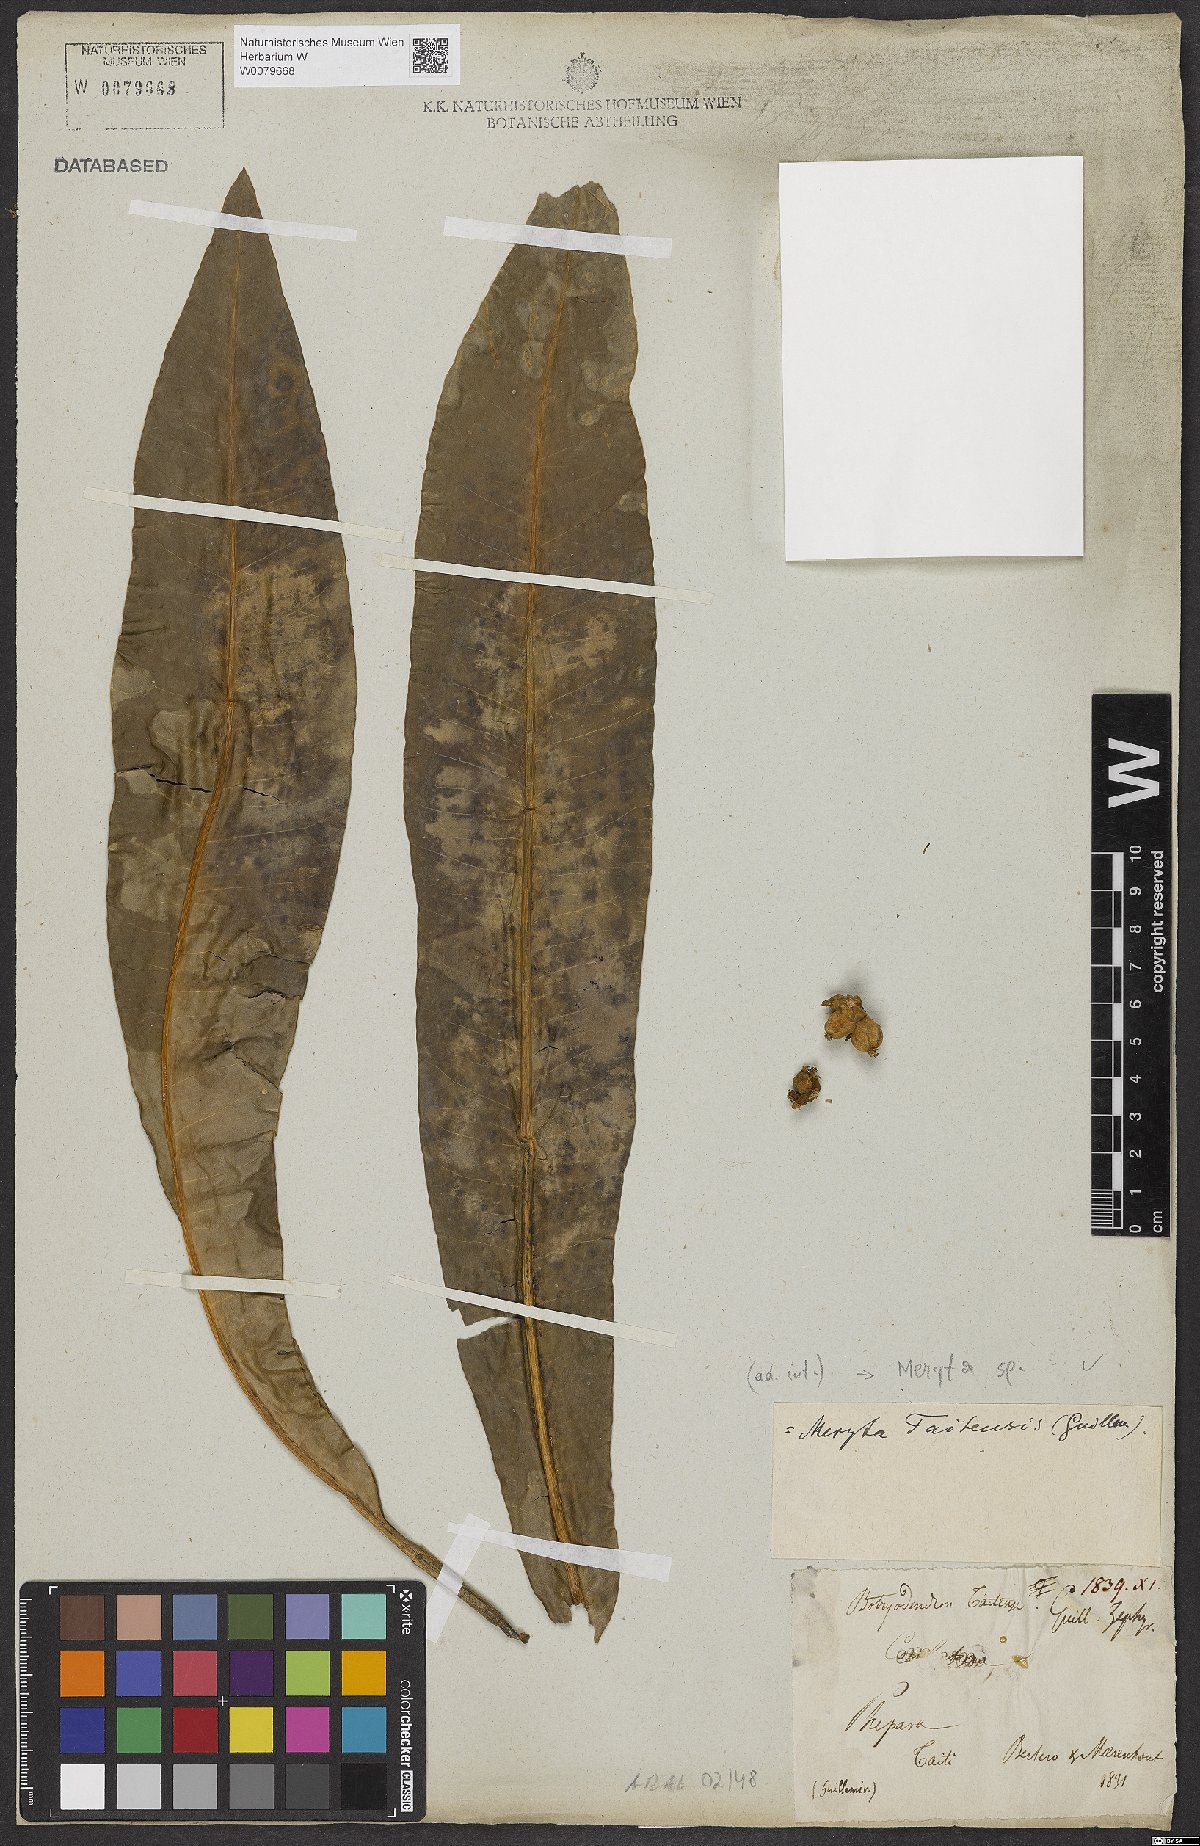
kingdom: Plantae
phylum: Tracheophyta
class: Magnoliopsida
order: Apiales
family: Araliaceae
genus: Meryta
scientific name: Meryta
